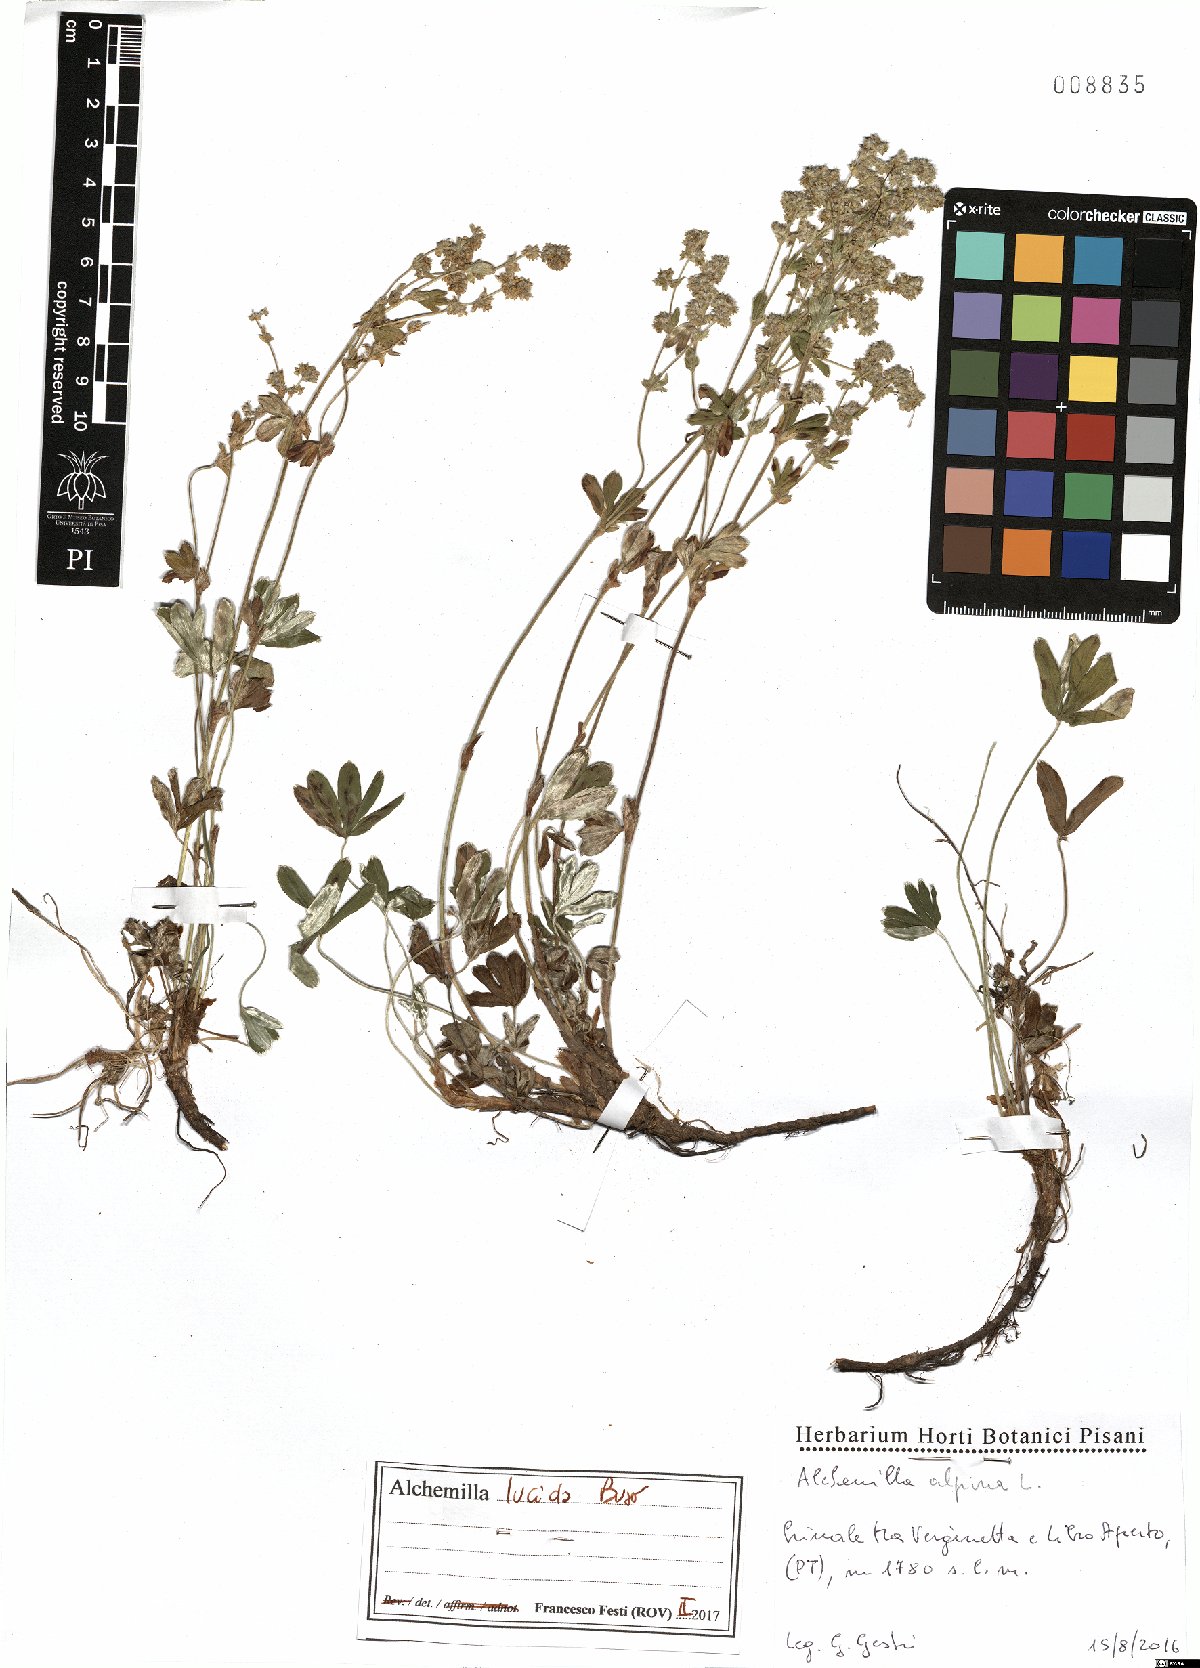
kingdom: Plantae
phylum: Tracheophyta
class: Magnoliopsida
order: Rosales
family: Rosaceae
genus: Alchemilla
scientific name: Alchemilla lucida
